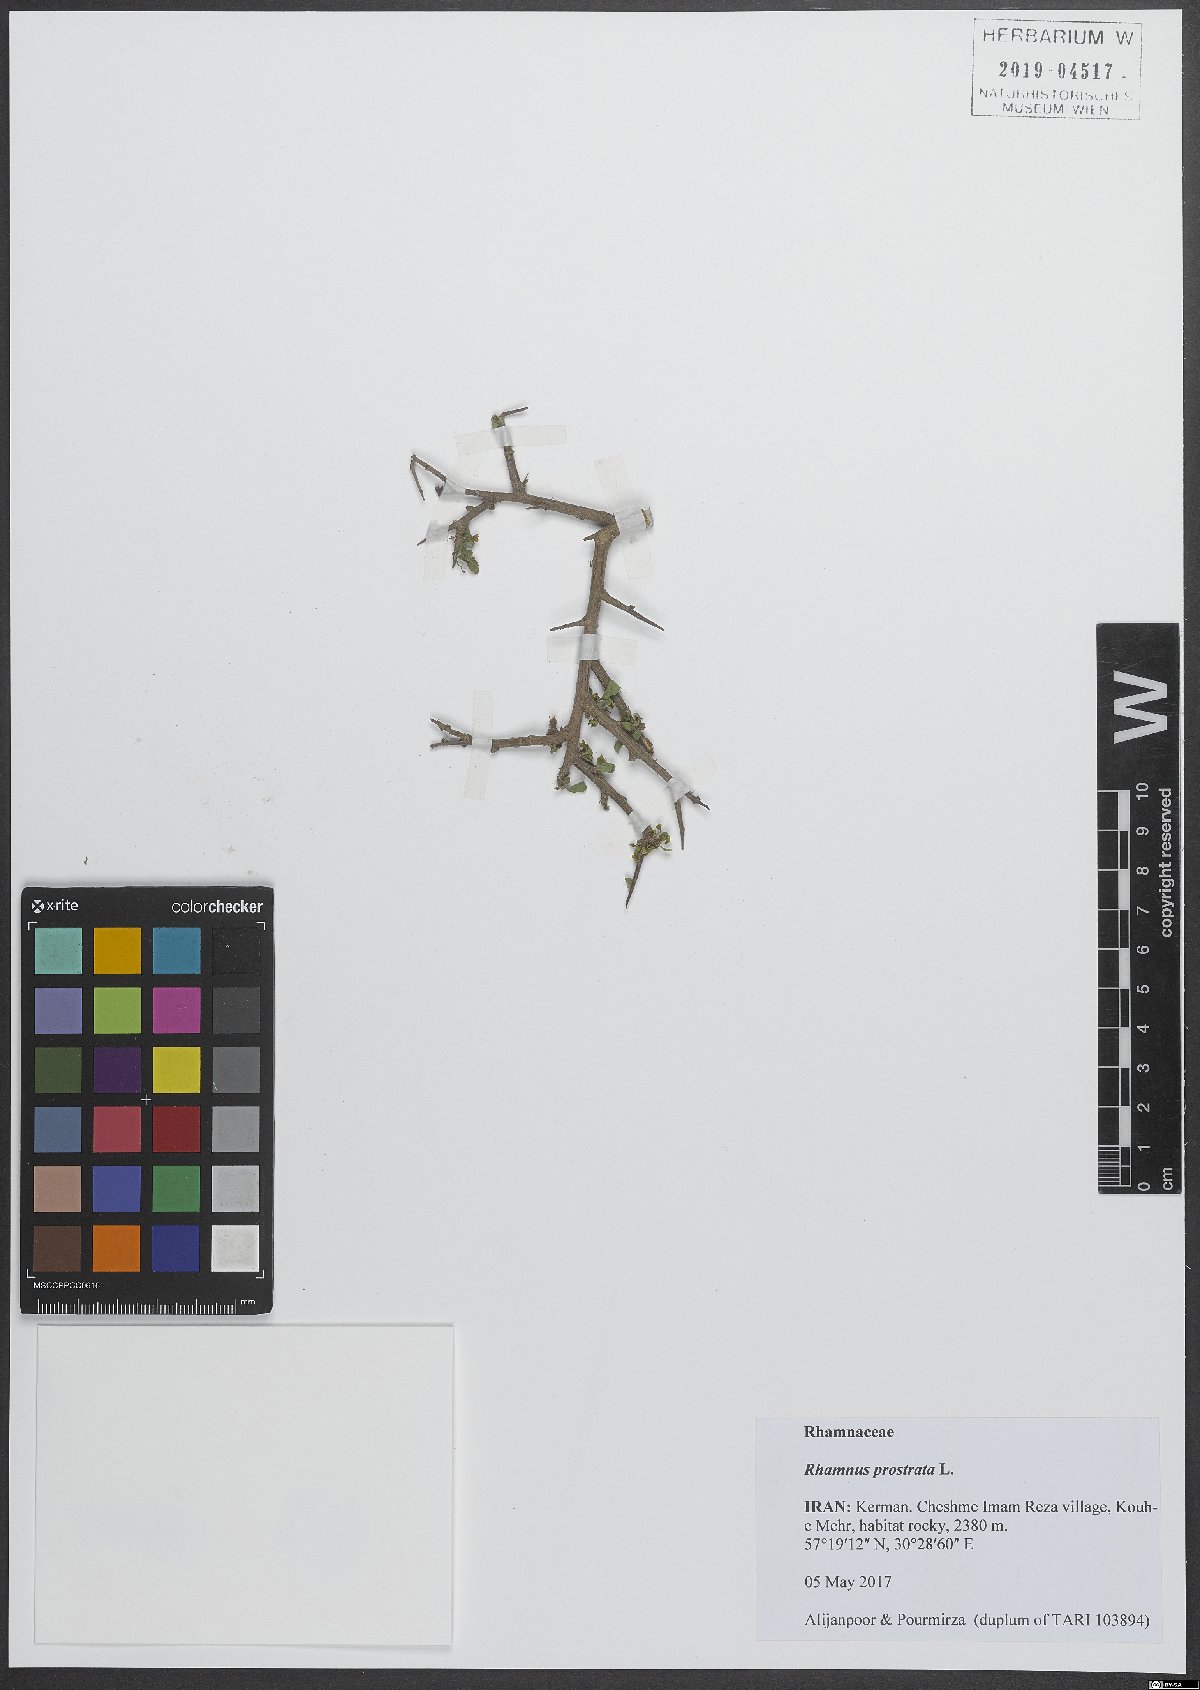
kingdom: Plantae
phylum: Tracheophyta
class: Magnoliopsida
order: Rosales
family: Rhamnaceae
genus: Rhamnus
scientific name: Rhamnus prostrata
